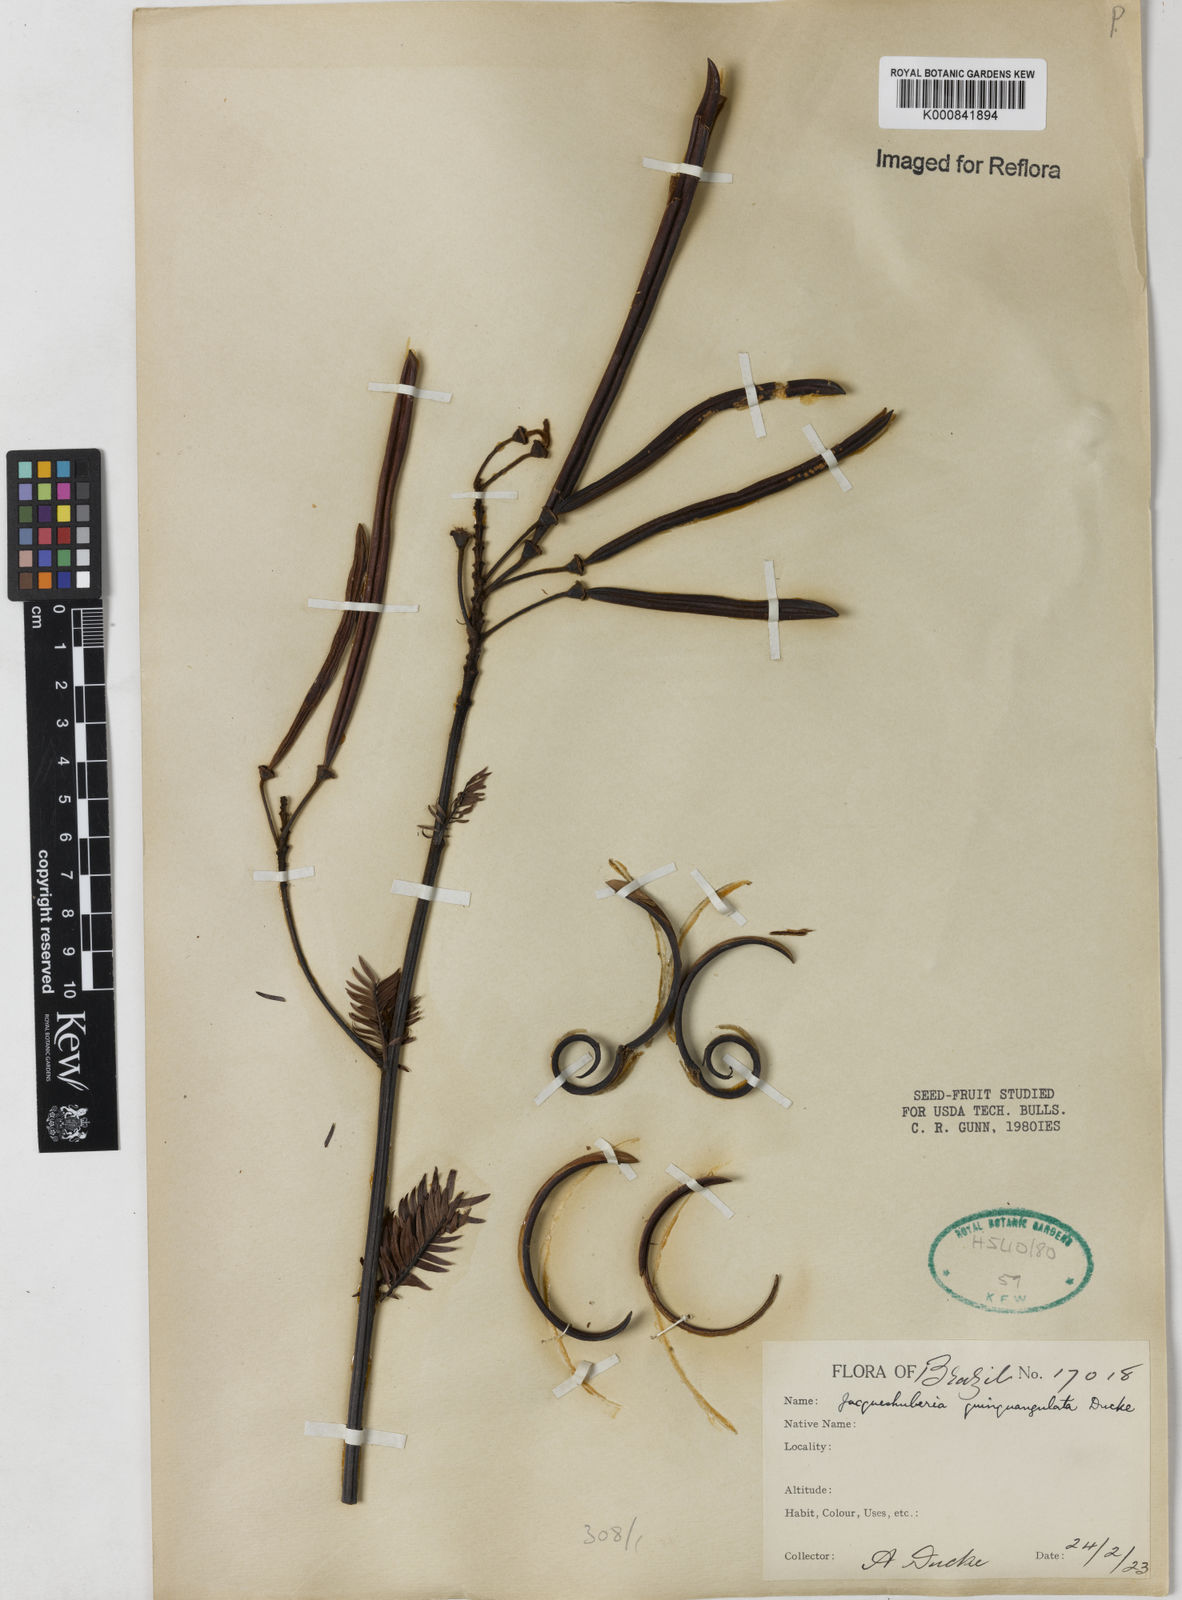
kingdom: Plantae
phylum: Tracheophyta
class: Magnoliopsida
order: Fabales
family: Fabaceae
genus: Jacqueshuberia
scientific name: Jacqueshuberia quinquangulata
